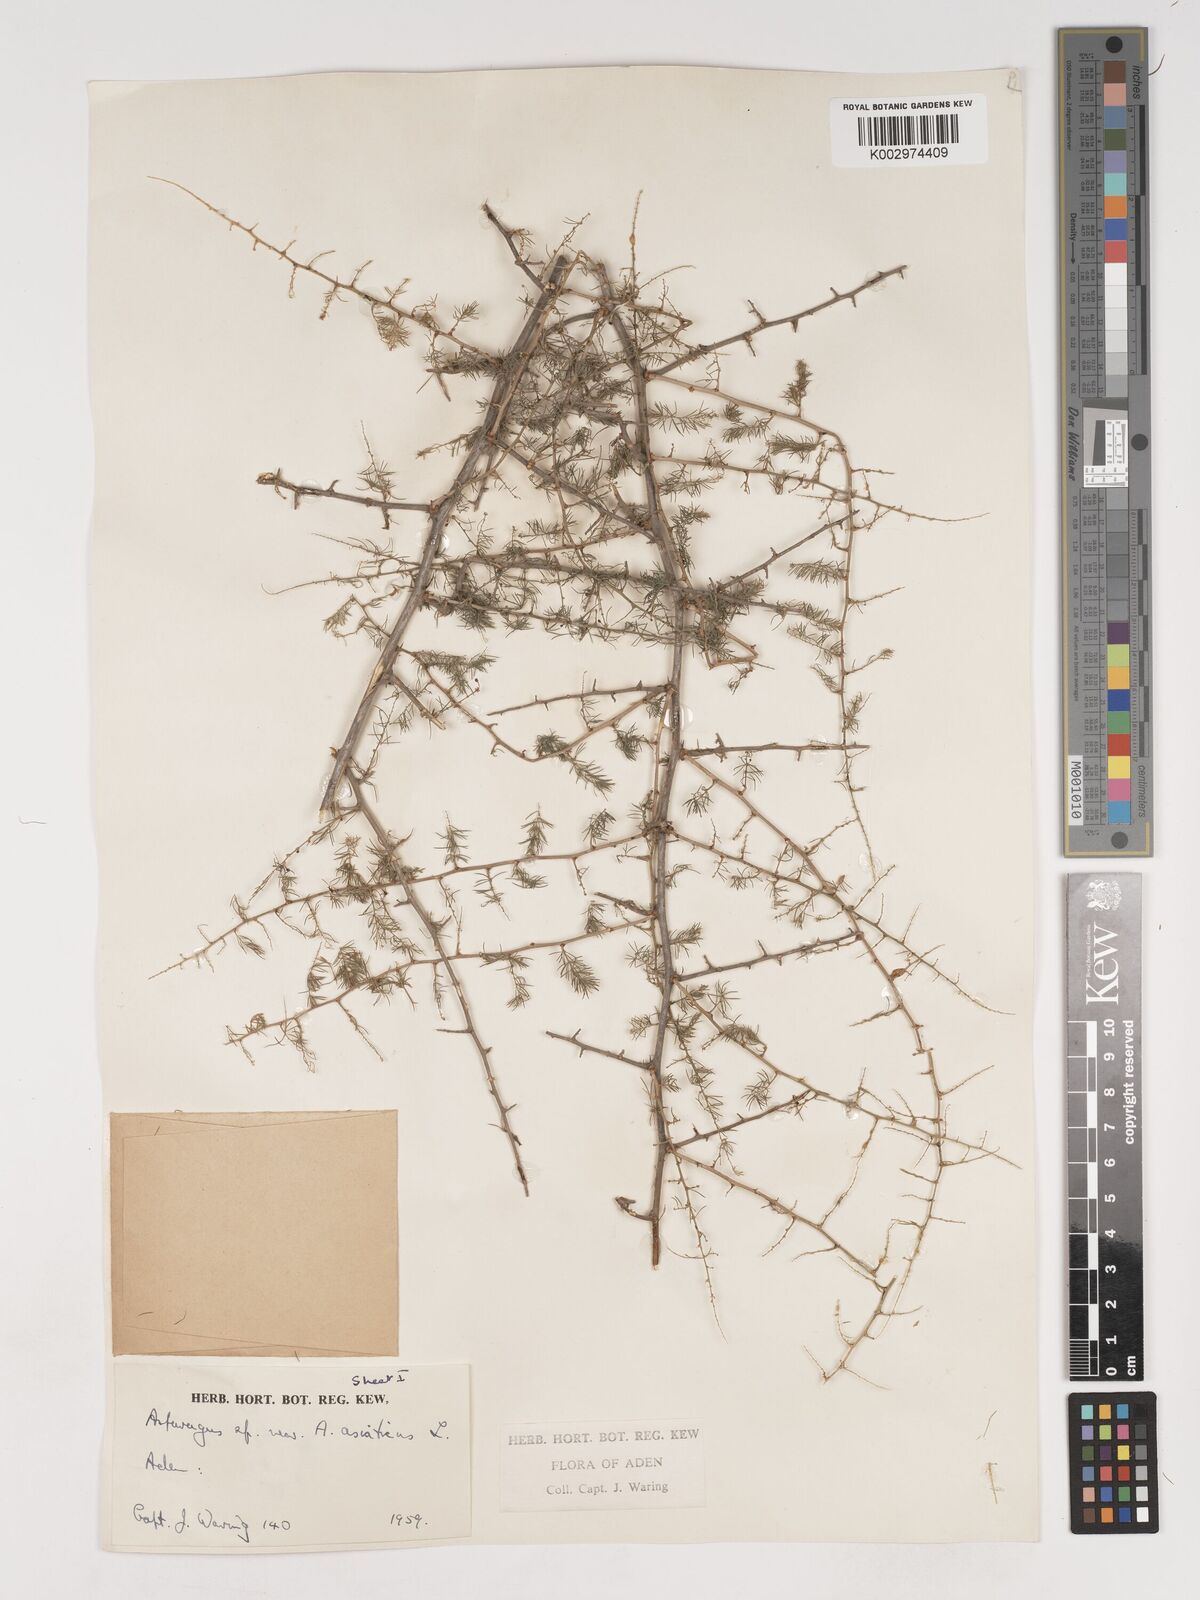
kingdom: Plantae
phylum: Tracheophyta
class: Liliopsida
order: Asparagales
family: Asparagaceae
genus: Asparagus
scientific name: Asparagus asiaticus
